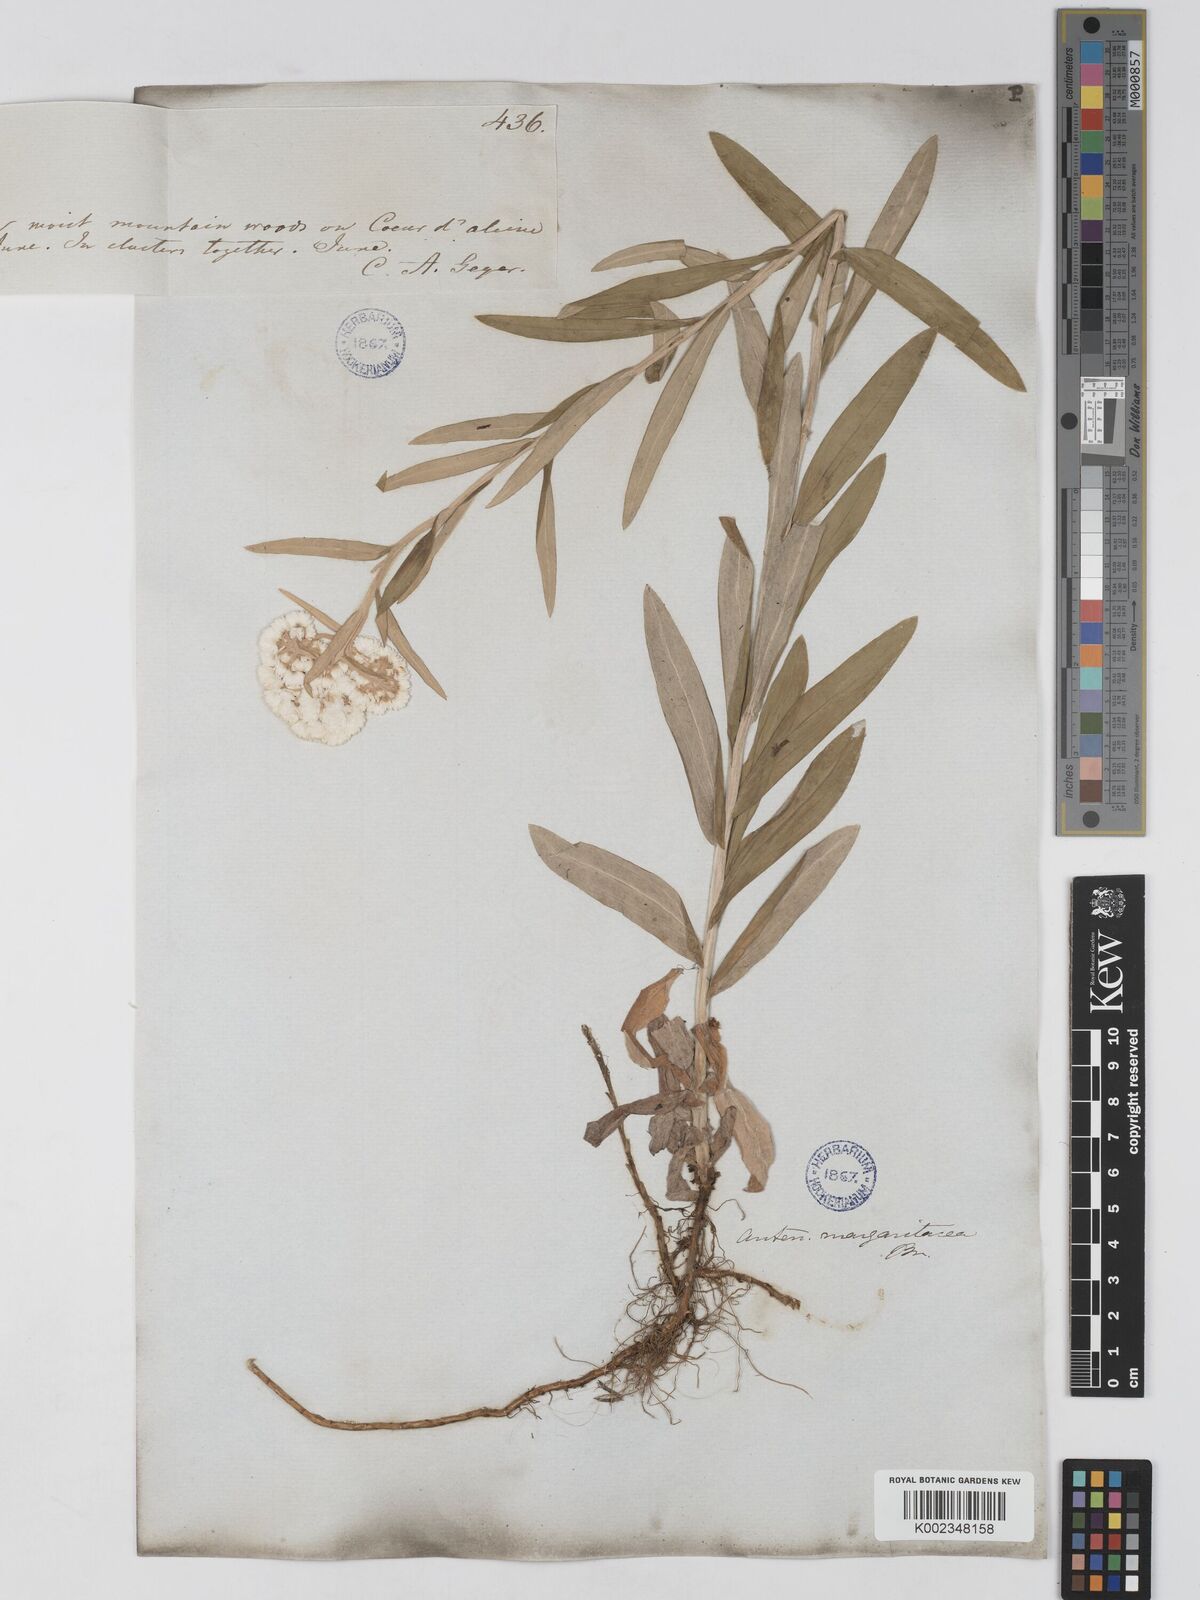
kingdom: Plantae
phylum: Tracheophyta
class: Magnoliopsida
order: Asterales
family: Asteraceae
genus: Anaphalis
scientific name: Anaphalis margaritacea
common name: Pearly everlasting
